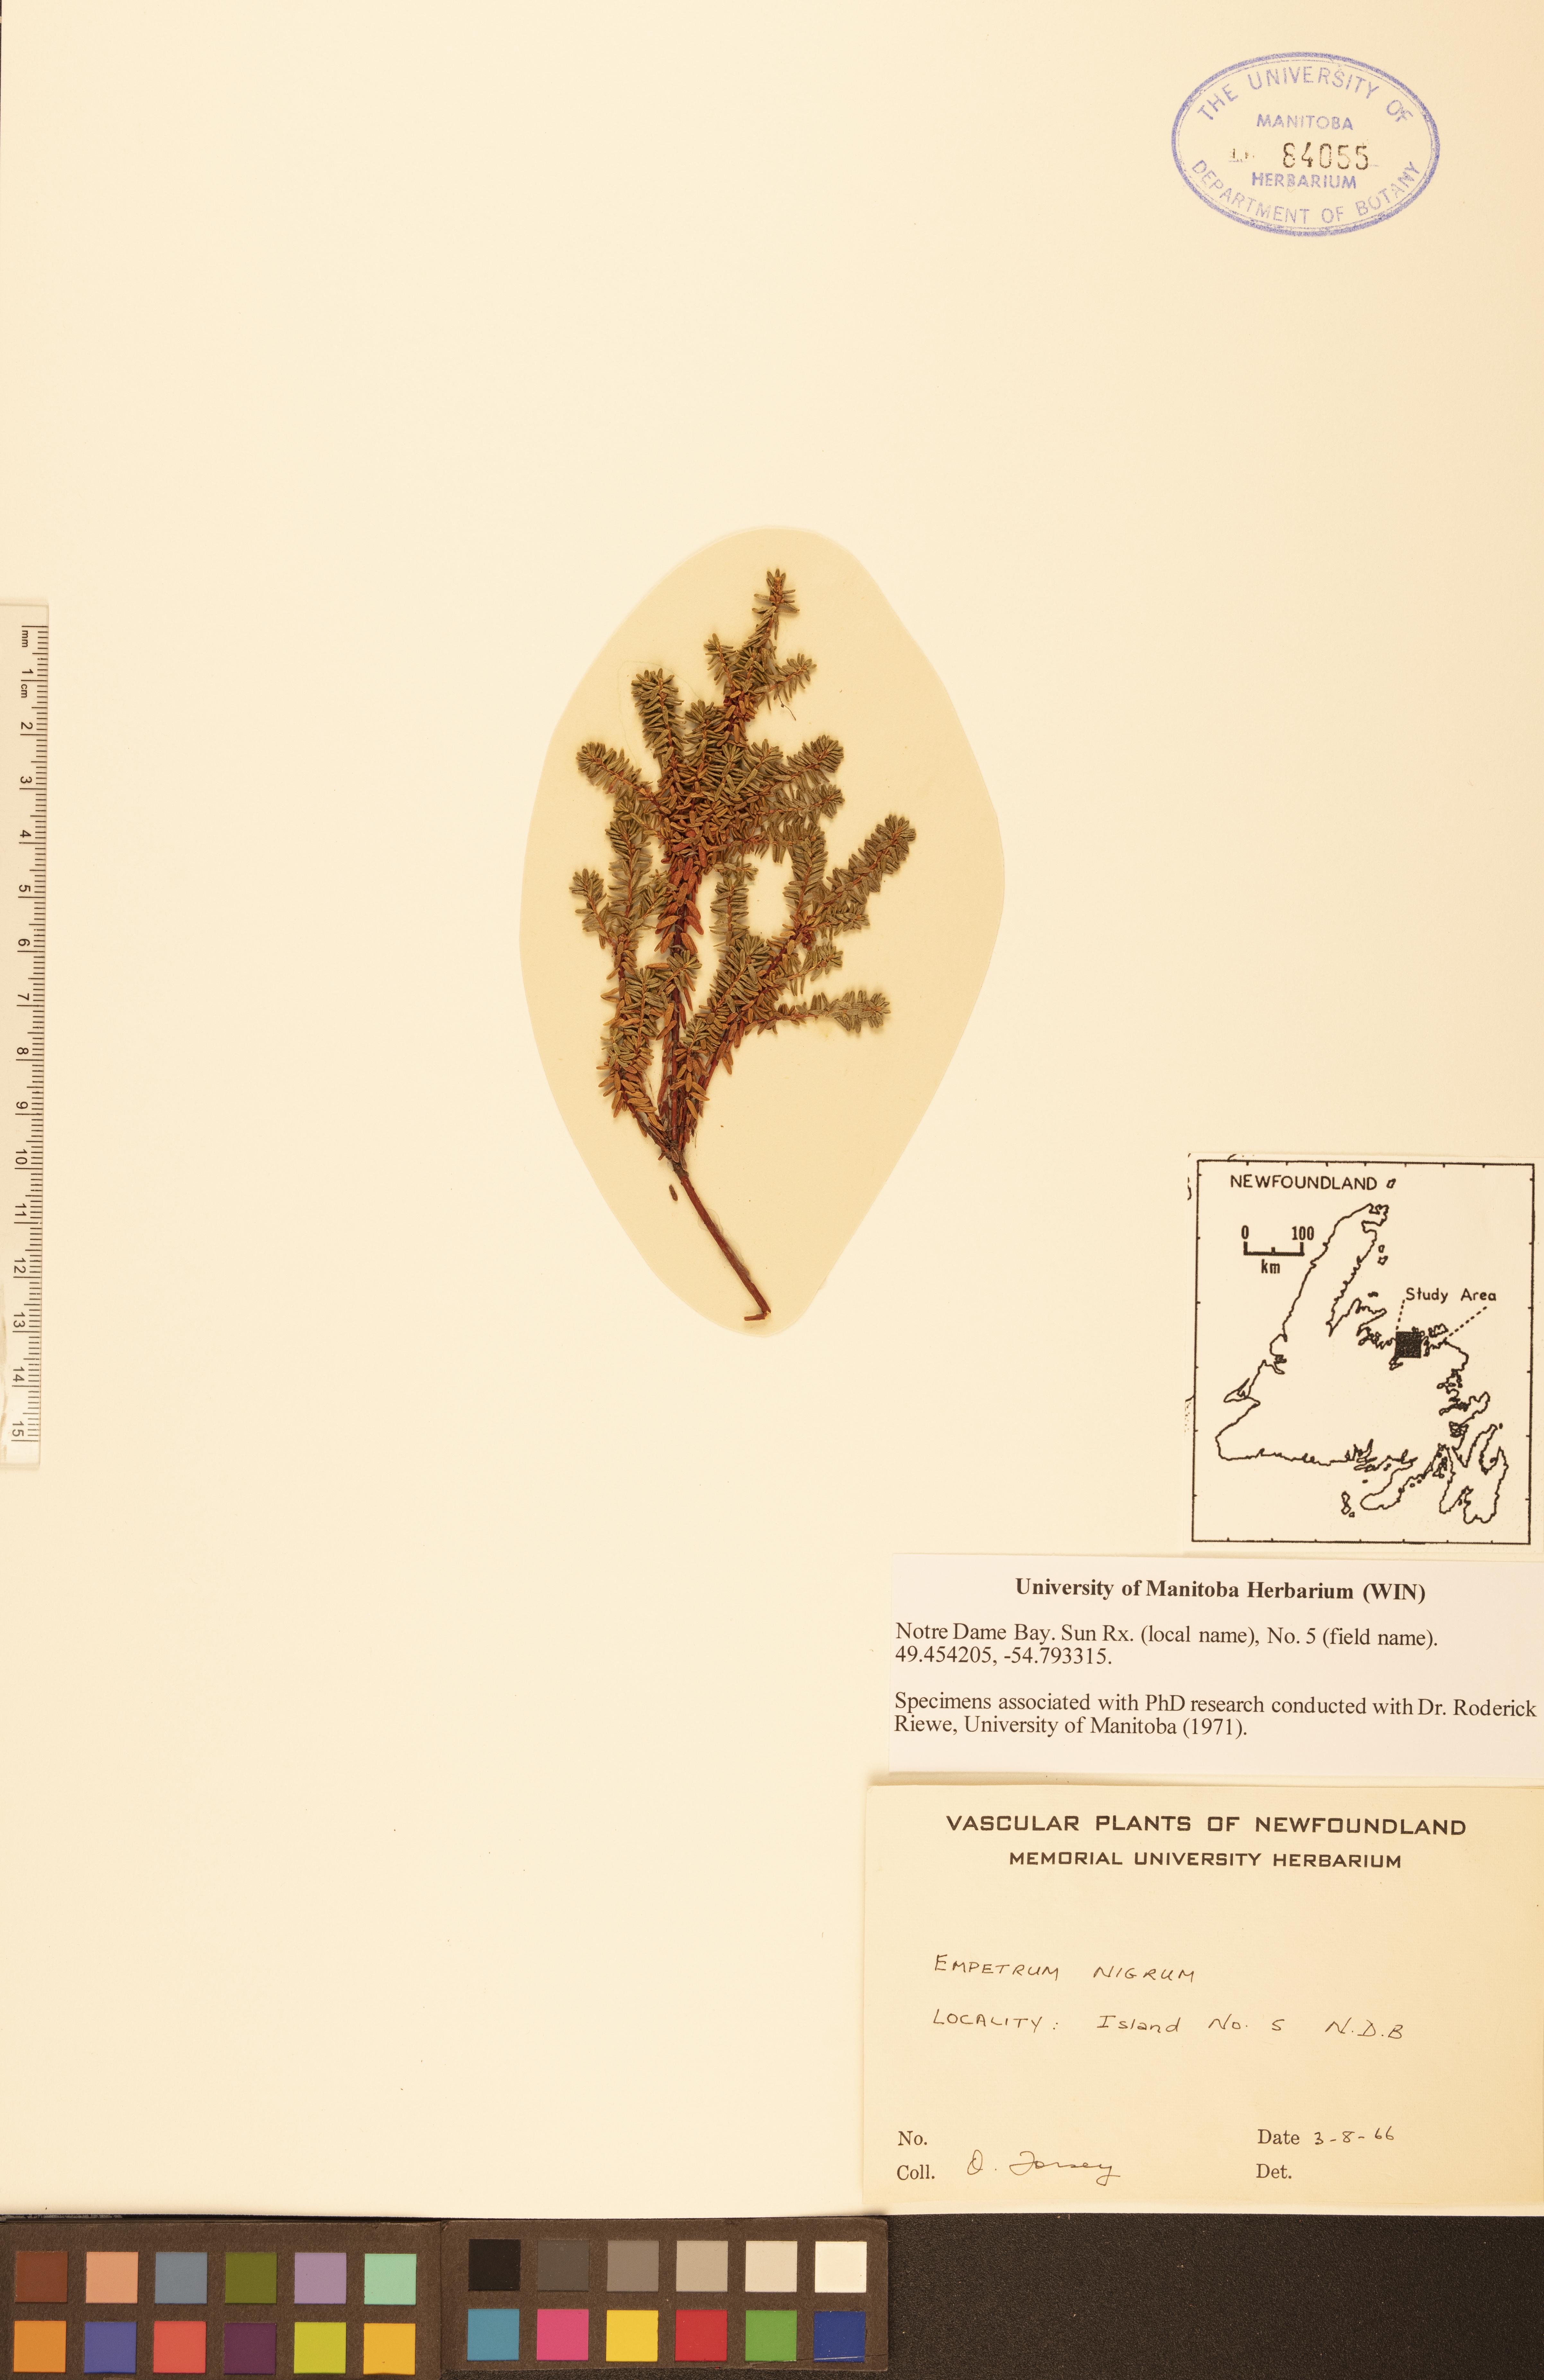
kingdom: Plantae
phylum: Tracheophyta
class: Magnoliopsida
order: Ericales
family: Ericaceae
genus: Empetrum
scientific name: Empetrum nigrum
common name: Black crowberry
